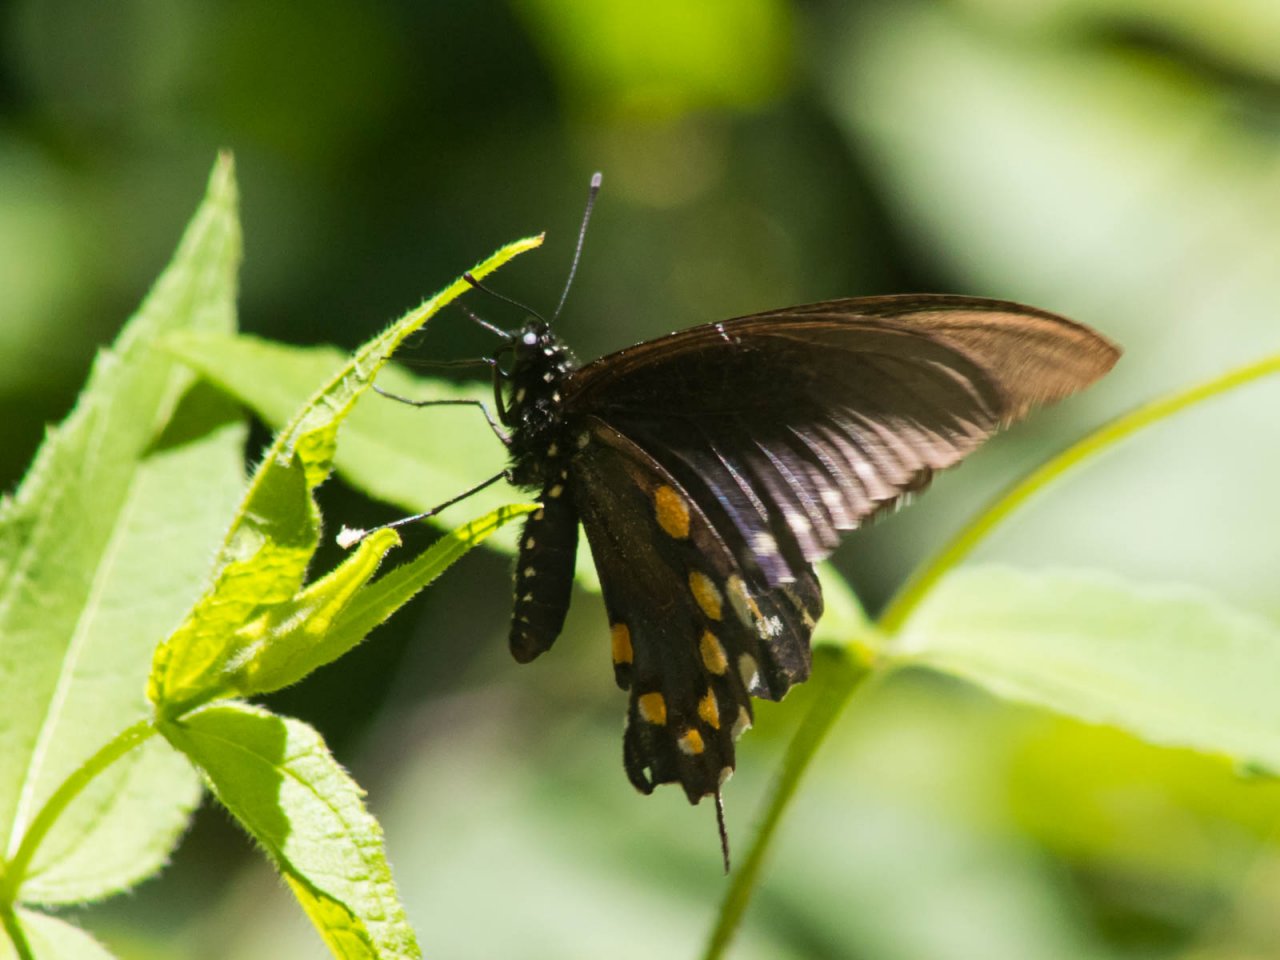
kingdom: Animalia
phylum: Arthropoda
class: Insecta
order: Lepidoptera
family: Papilionidae
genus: Battus
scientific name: Battus philenor
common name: Pipevine Swallowtail
